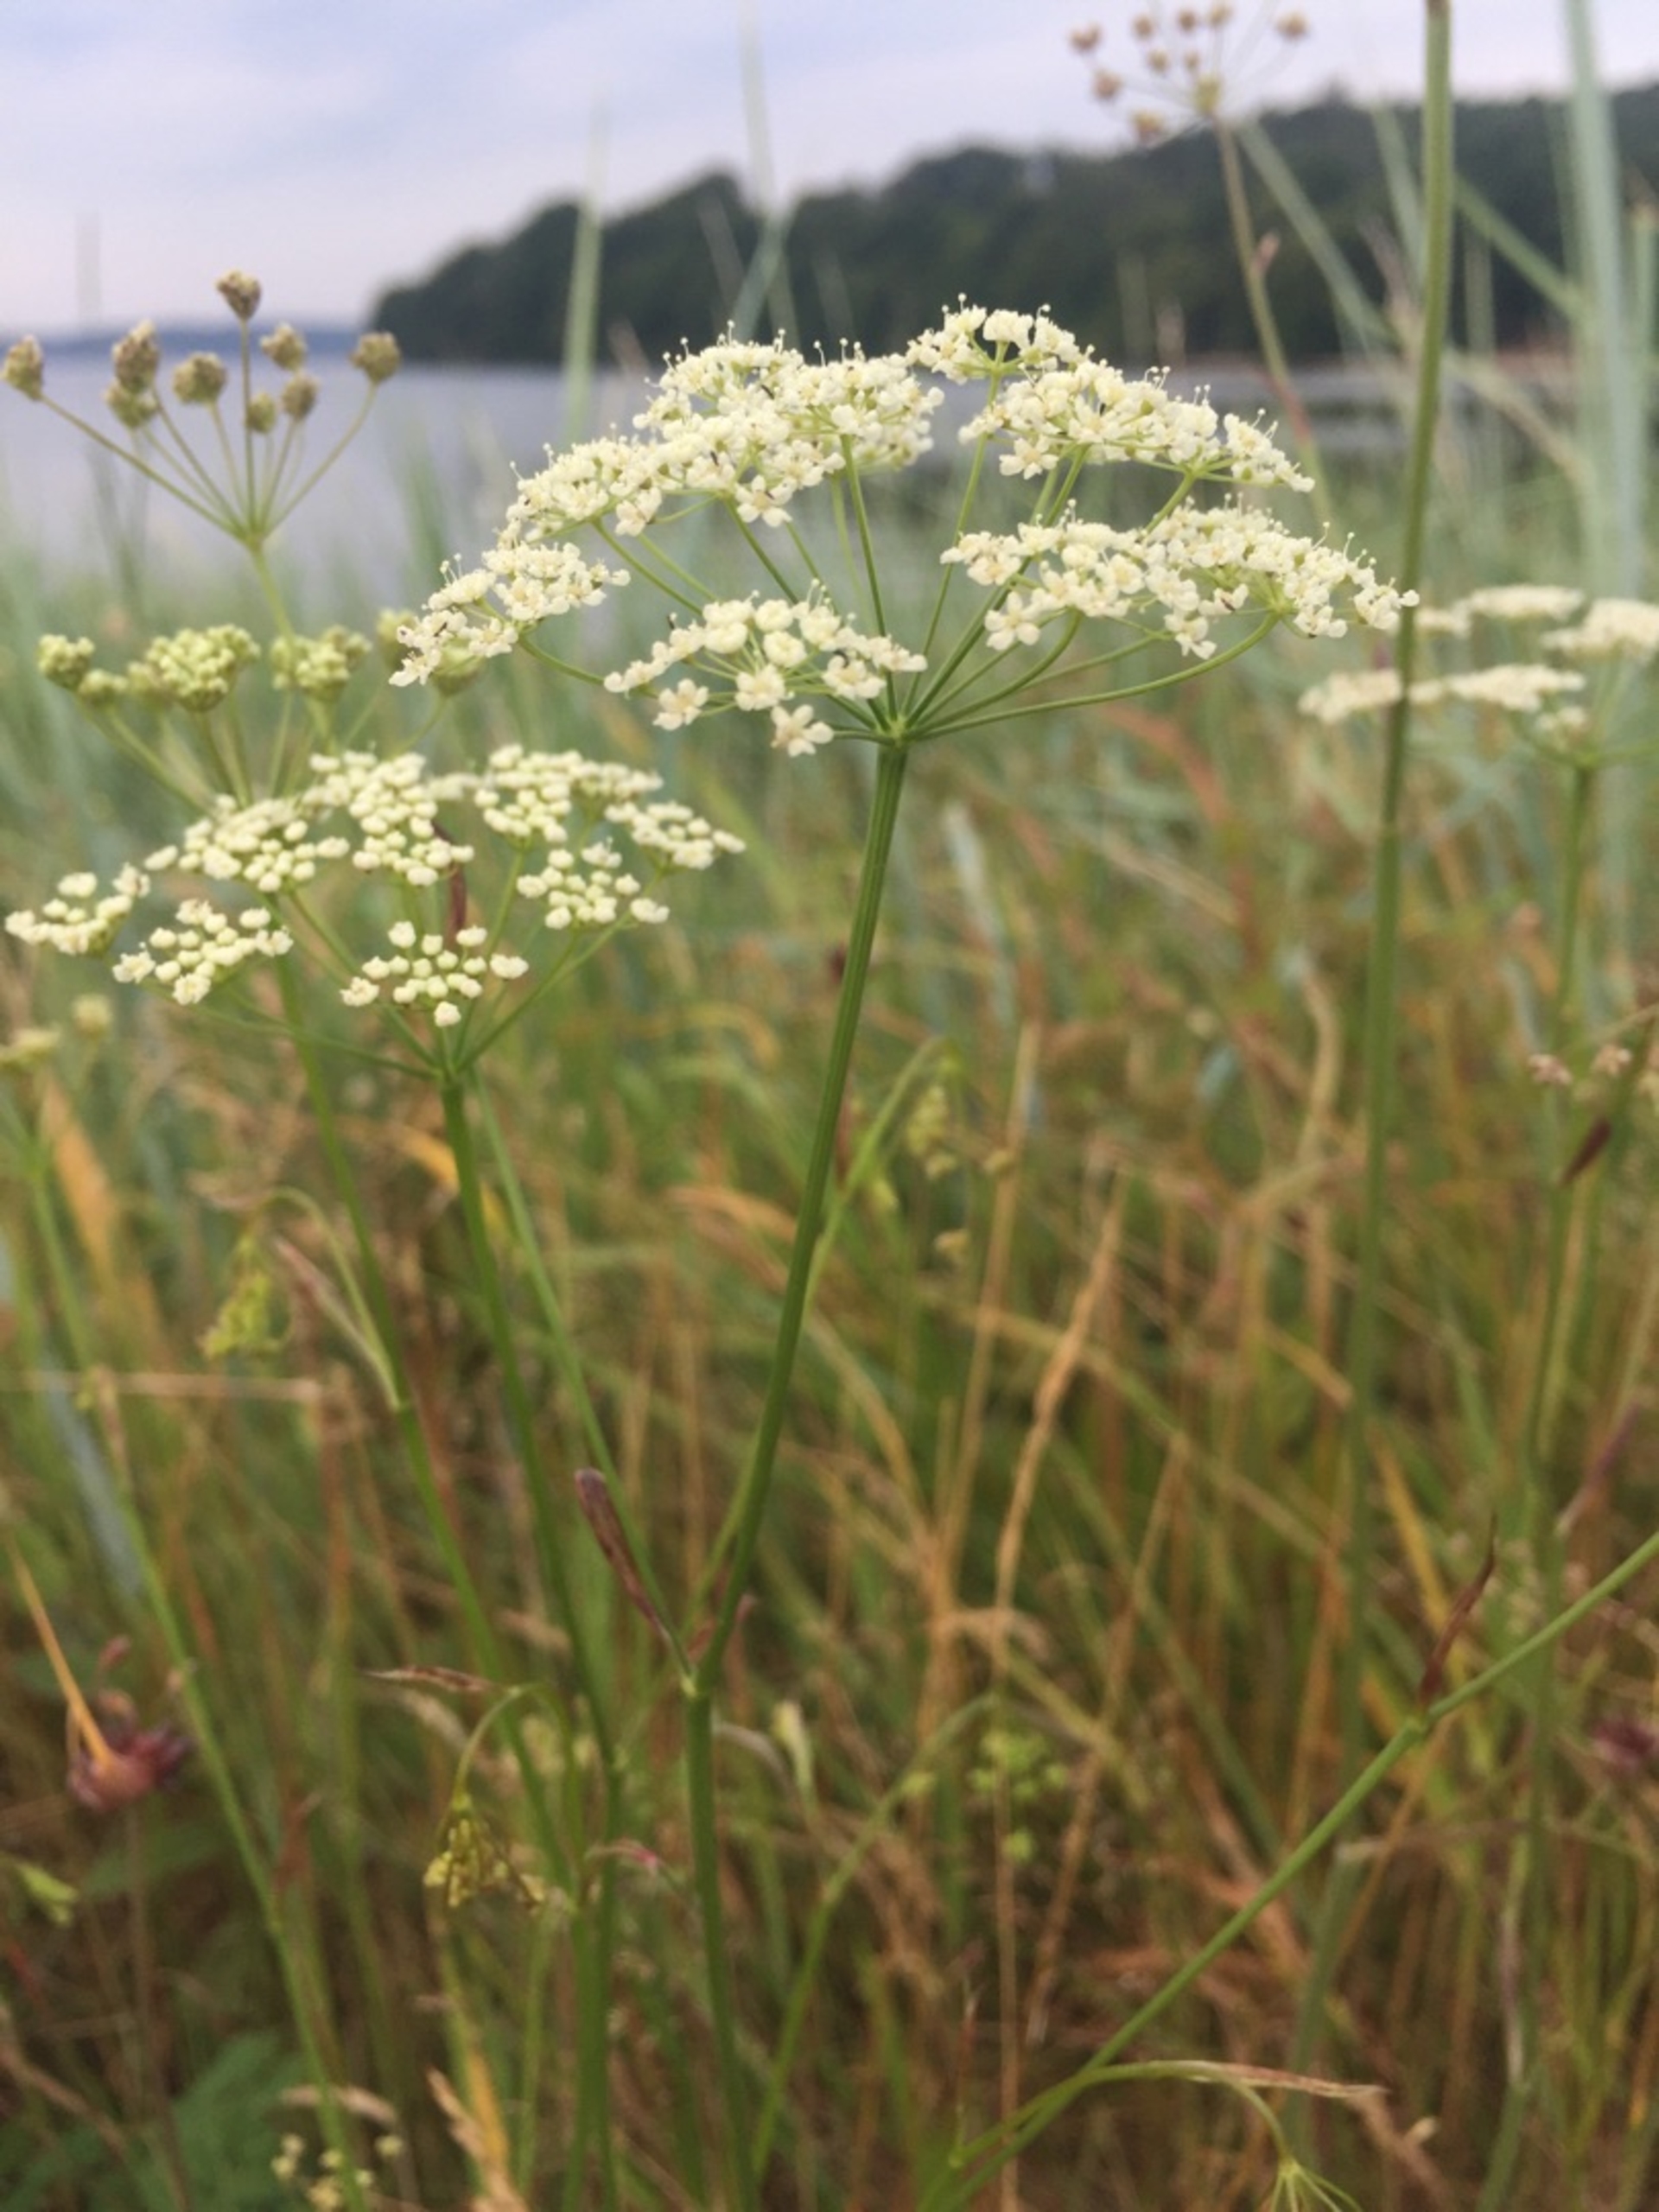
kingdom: Plantae
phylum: Tracheophyta
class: Magnoliopsida
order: Apiales
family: Apiaceae
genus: Pimpinella
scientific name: Pimpinella saxifraga
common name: Almindelig pimpinelle
